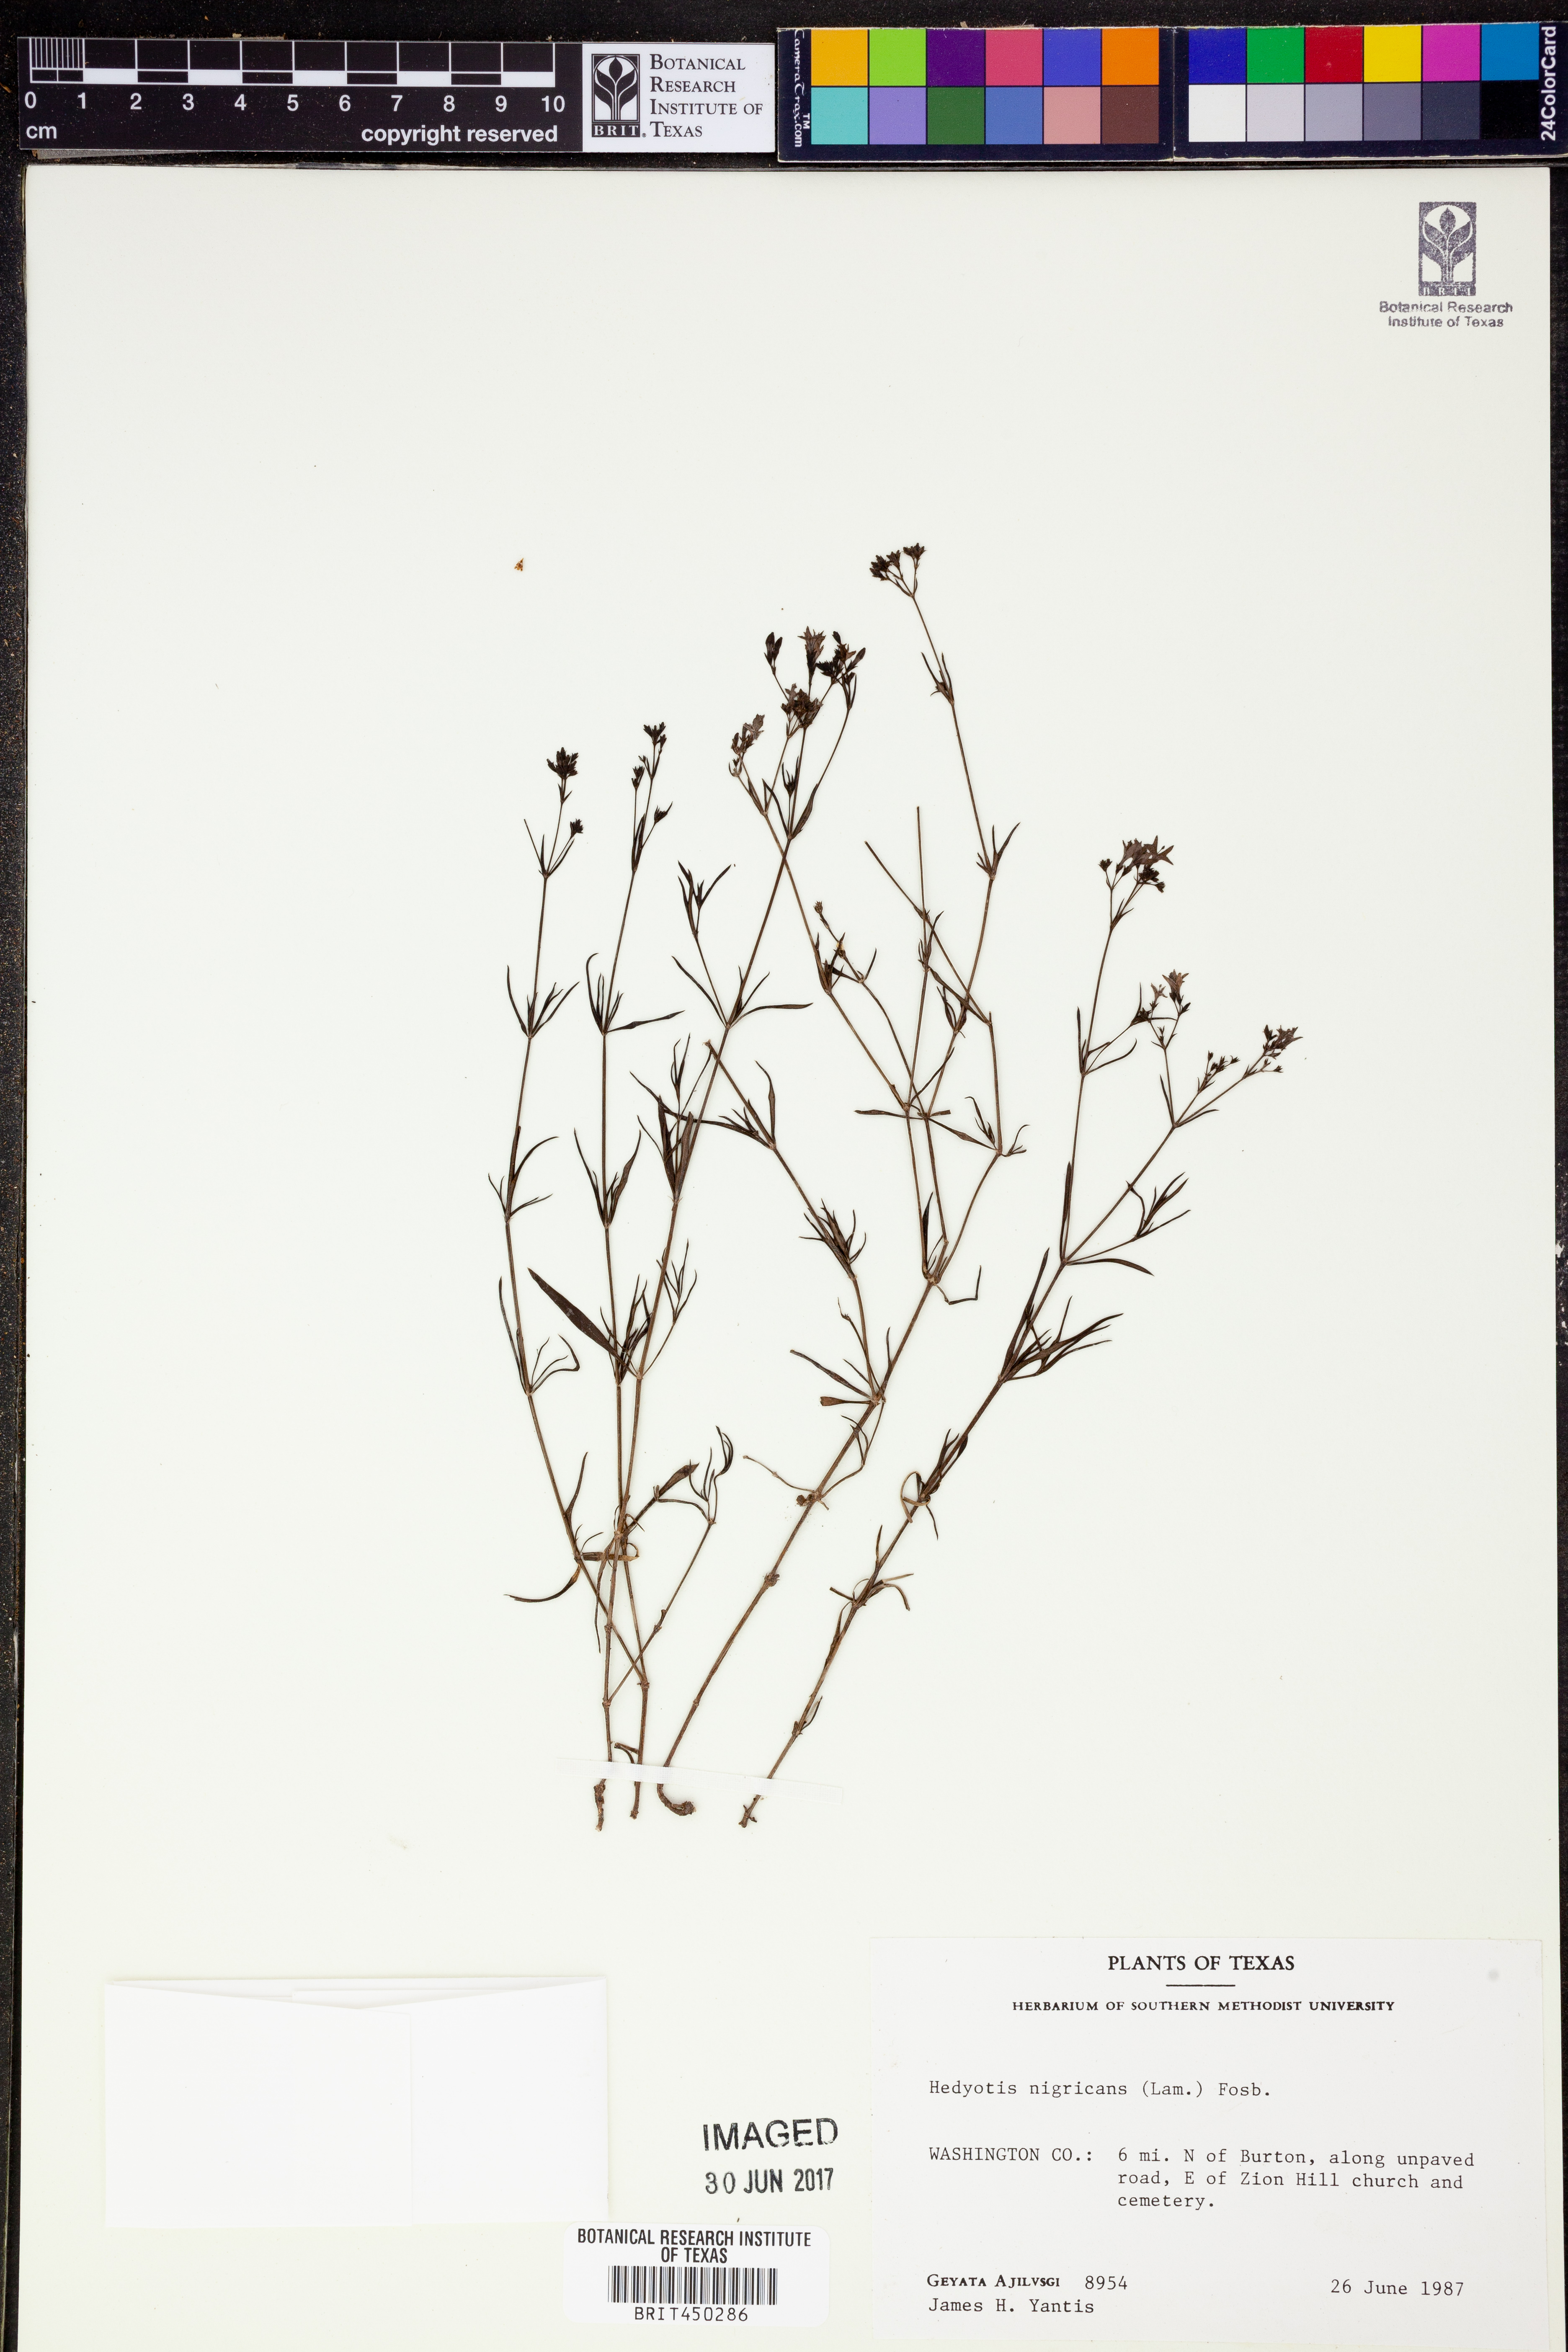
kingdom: Plantae
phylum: Tracheophyta
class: Magnoliopsida
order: Gentianales
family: Rubiaceae
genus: Stenaria
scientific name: Stenaria nigricans
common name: Diamondflowers
